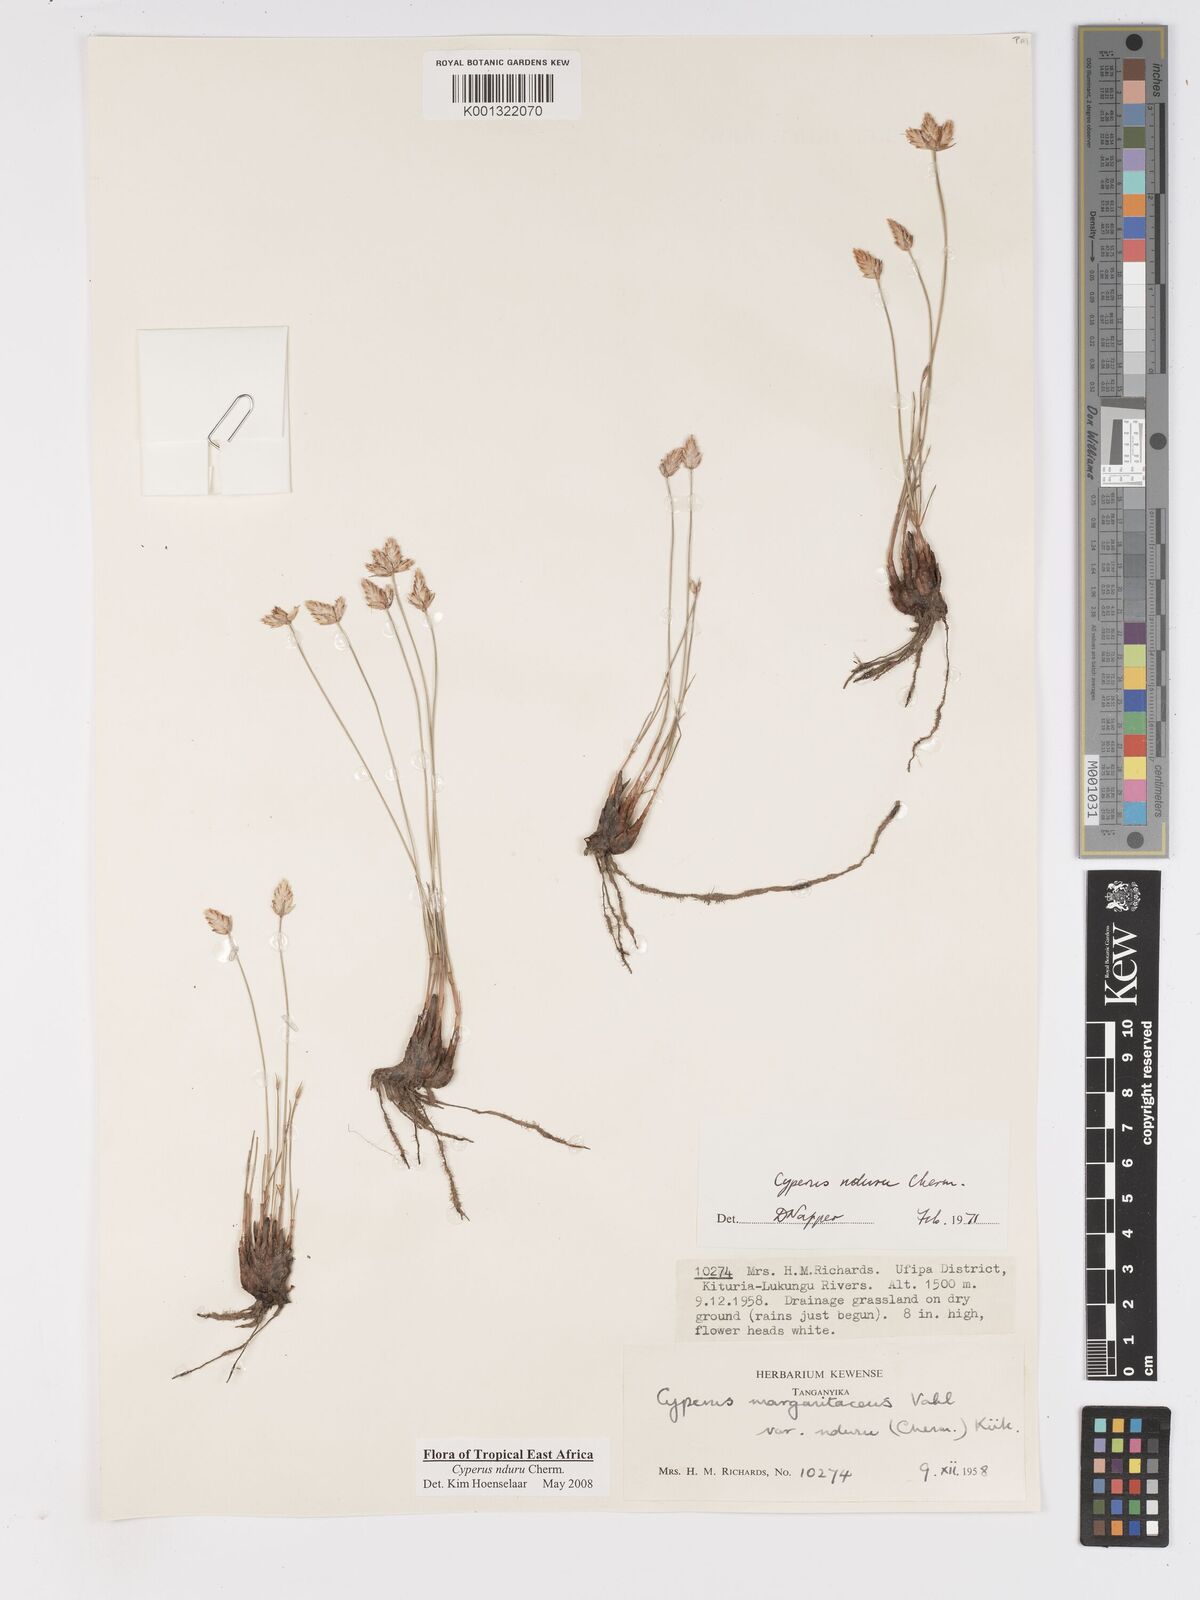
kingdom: Plantae
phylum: Tracheophyta
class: Liliopsida
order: Poales
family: Cyperaceae
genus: Cyperus
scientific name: Cyperus nduru
